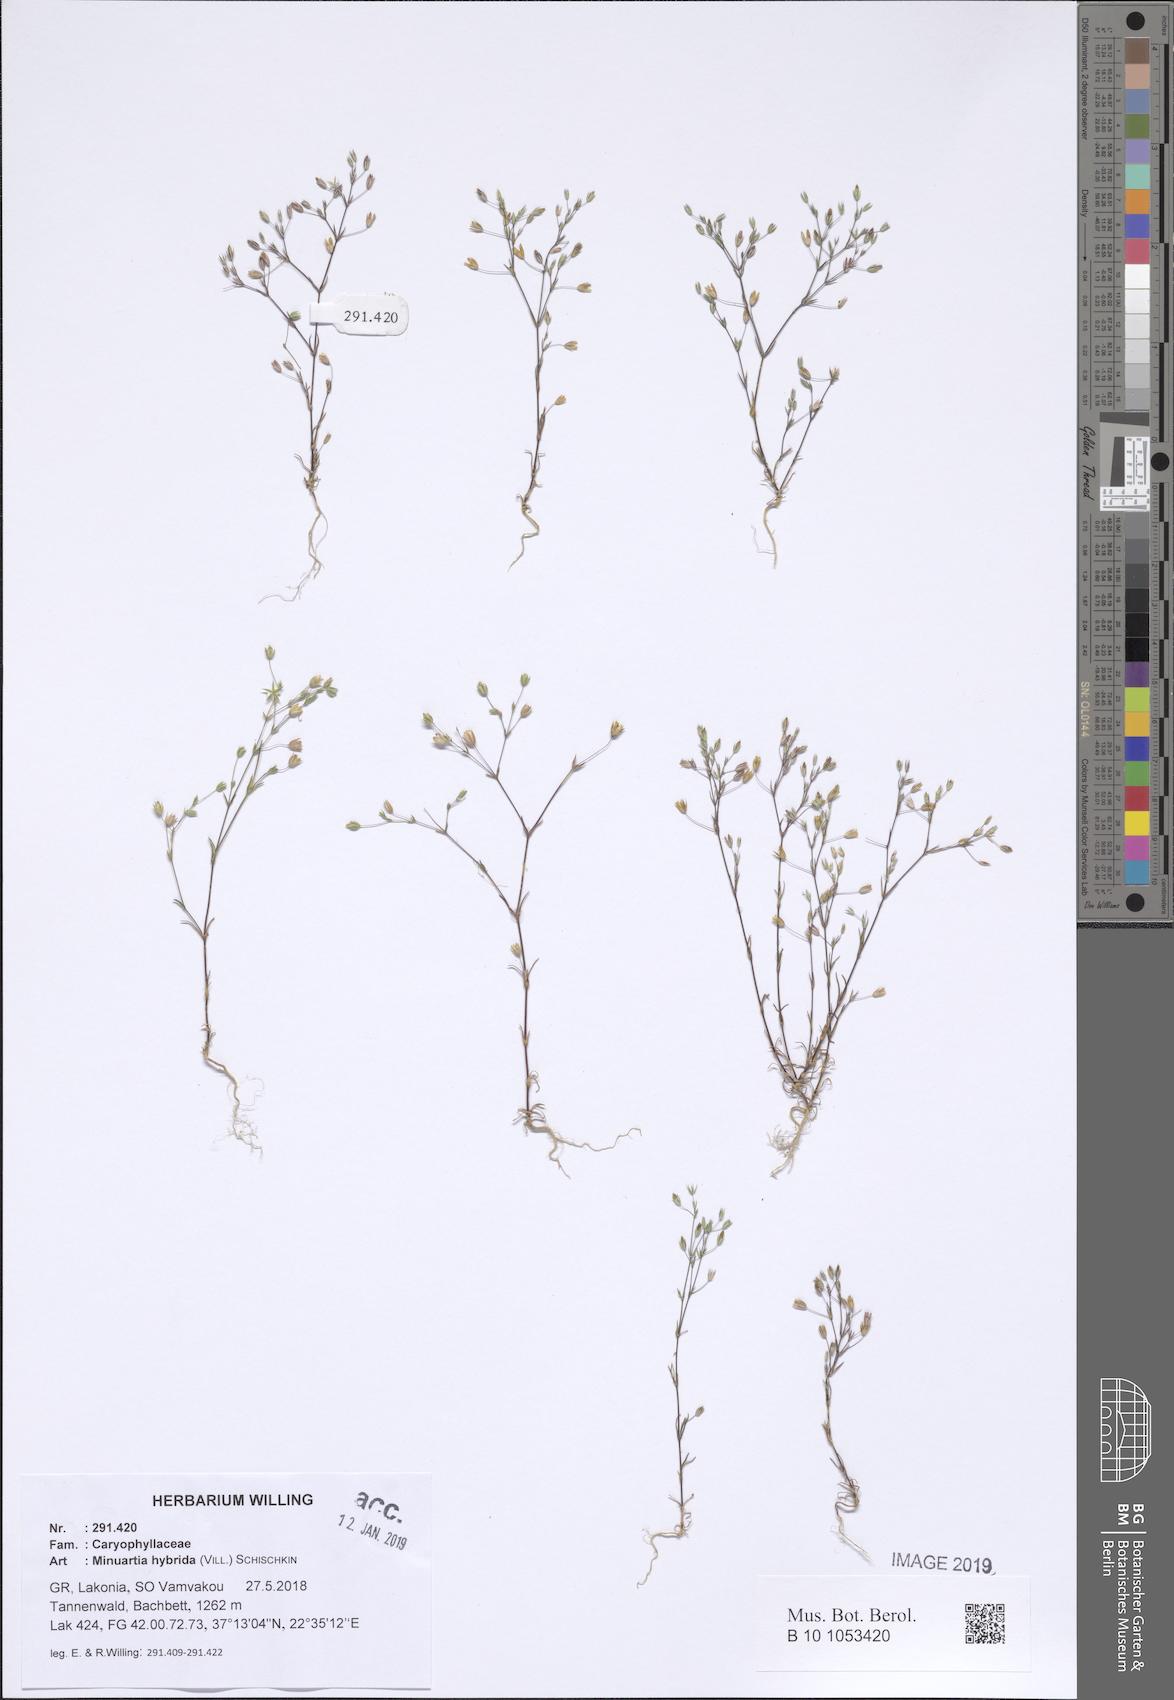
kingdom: Plantae
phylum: Tracheophyta
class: Magnoliopsida
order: Caryophyllales
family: Caryophyllaceae
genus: Sabulina
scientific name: Sabulina tenuifolia
